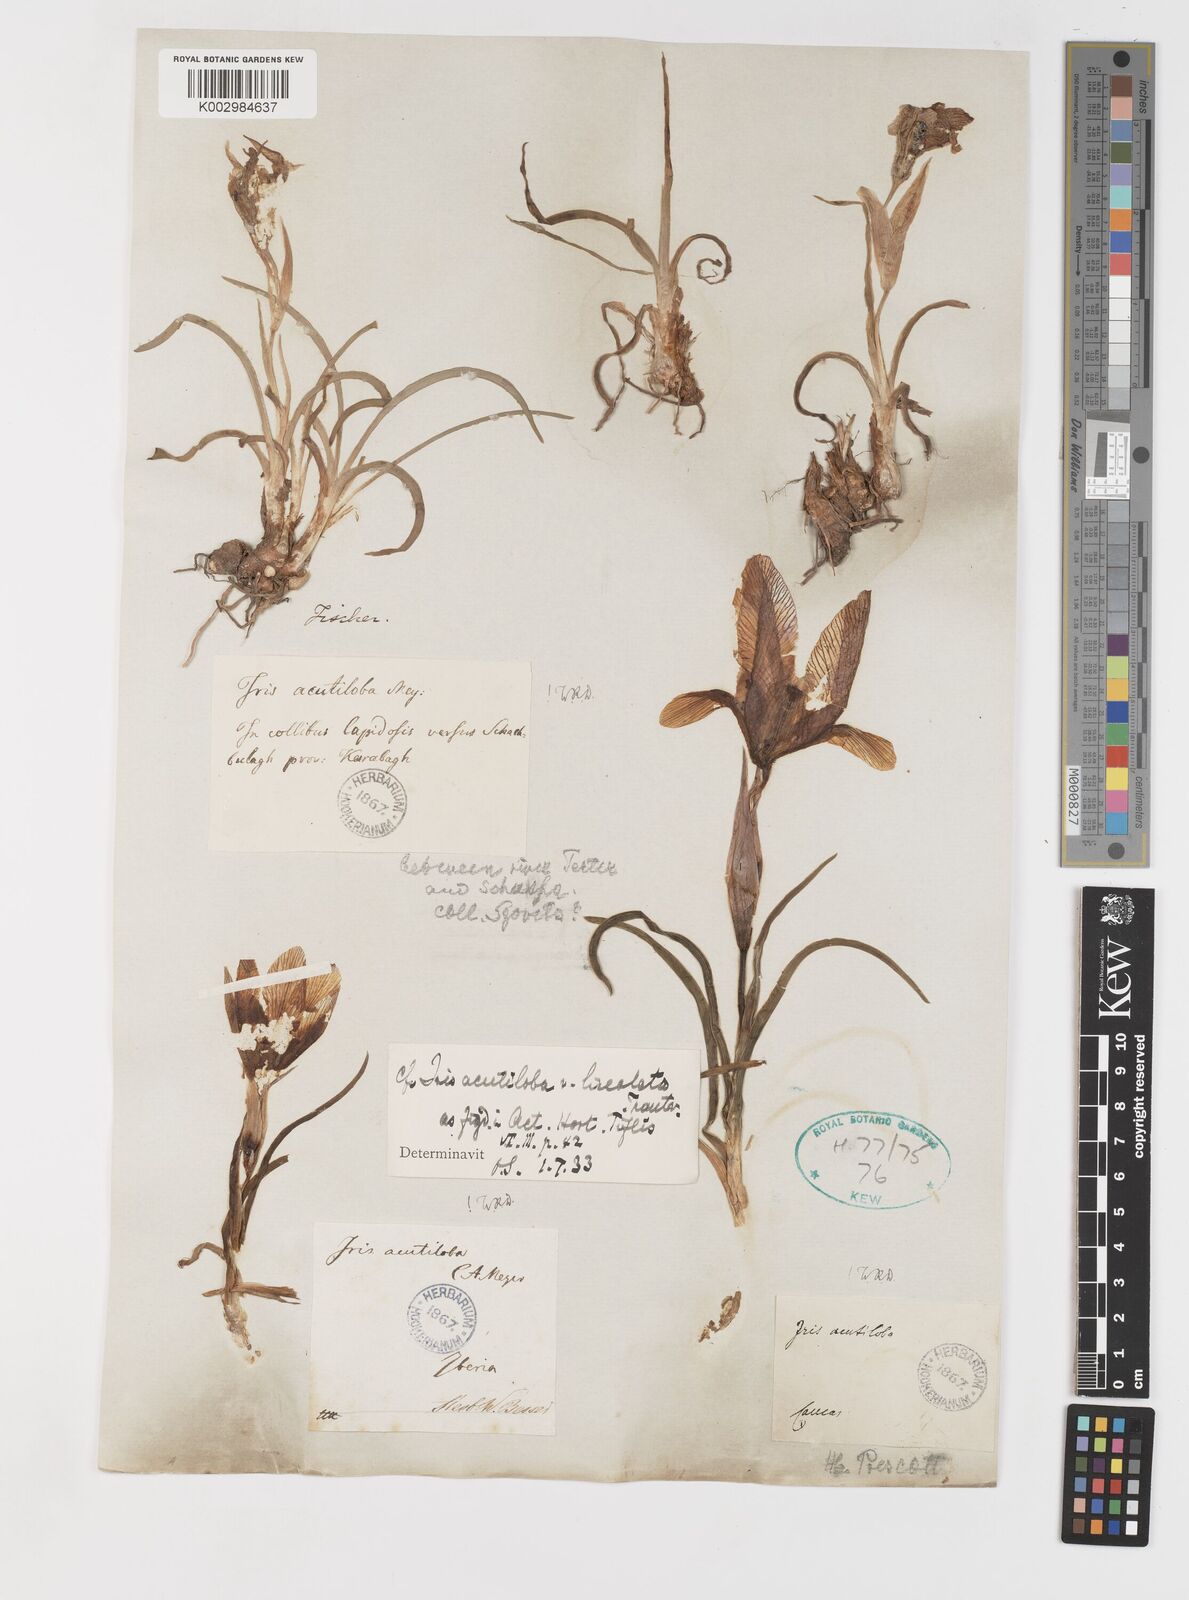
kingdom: Plantae
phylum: Tracheophyta
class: Liliopsida
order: Asparagales
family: Iridaceae
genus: Iris
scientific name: Iris acutiloba
